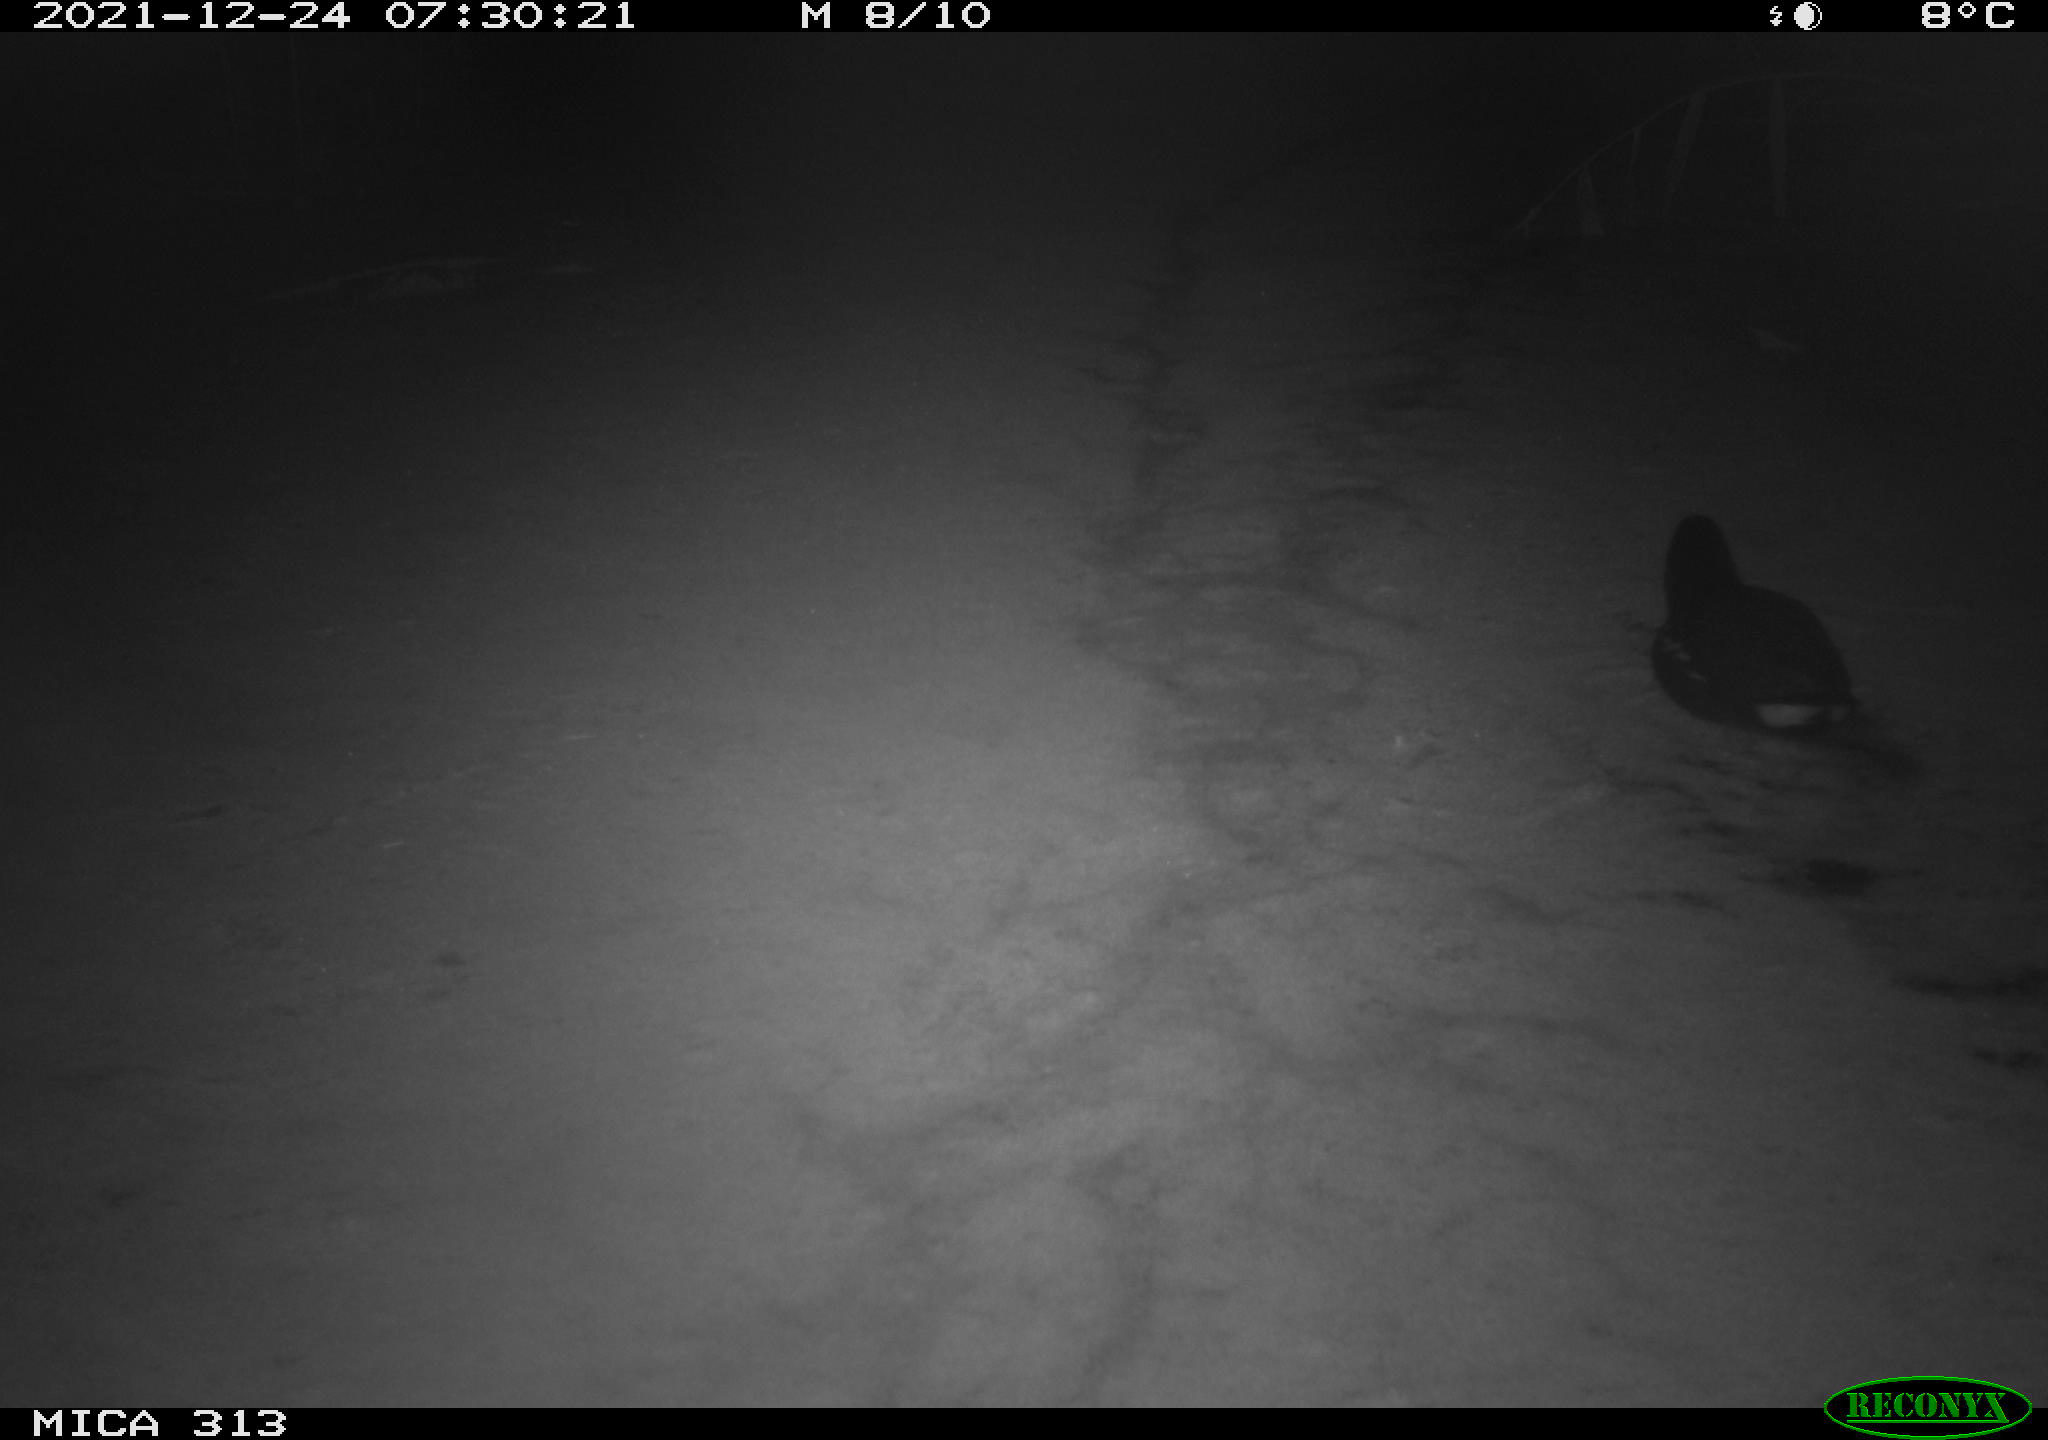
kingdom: Animalia
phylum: Chordata
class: Aves
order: Gruiformes
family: Rallidae
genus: Gallinula
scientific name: Gallinula chloropus
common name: Common moorhen
